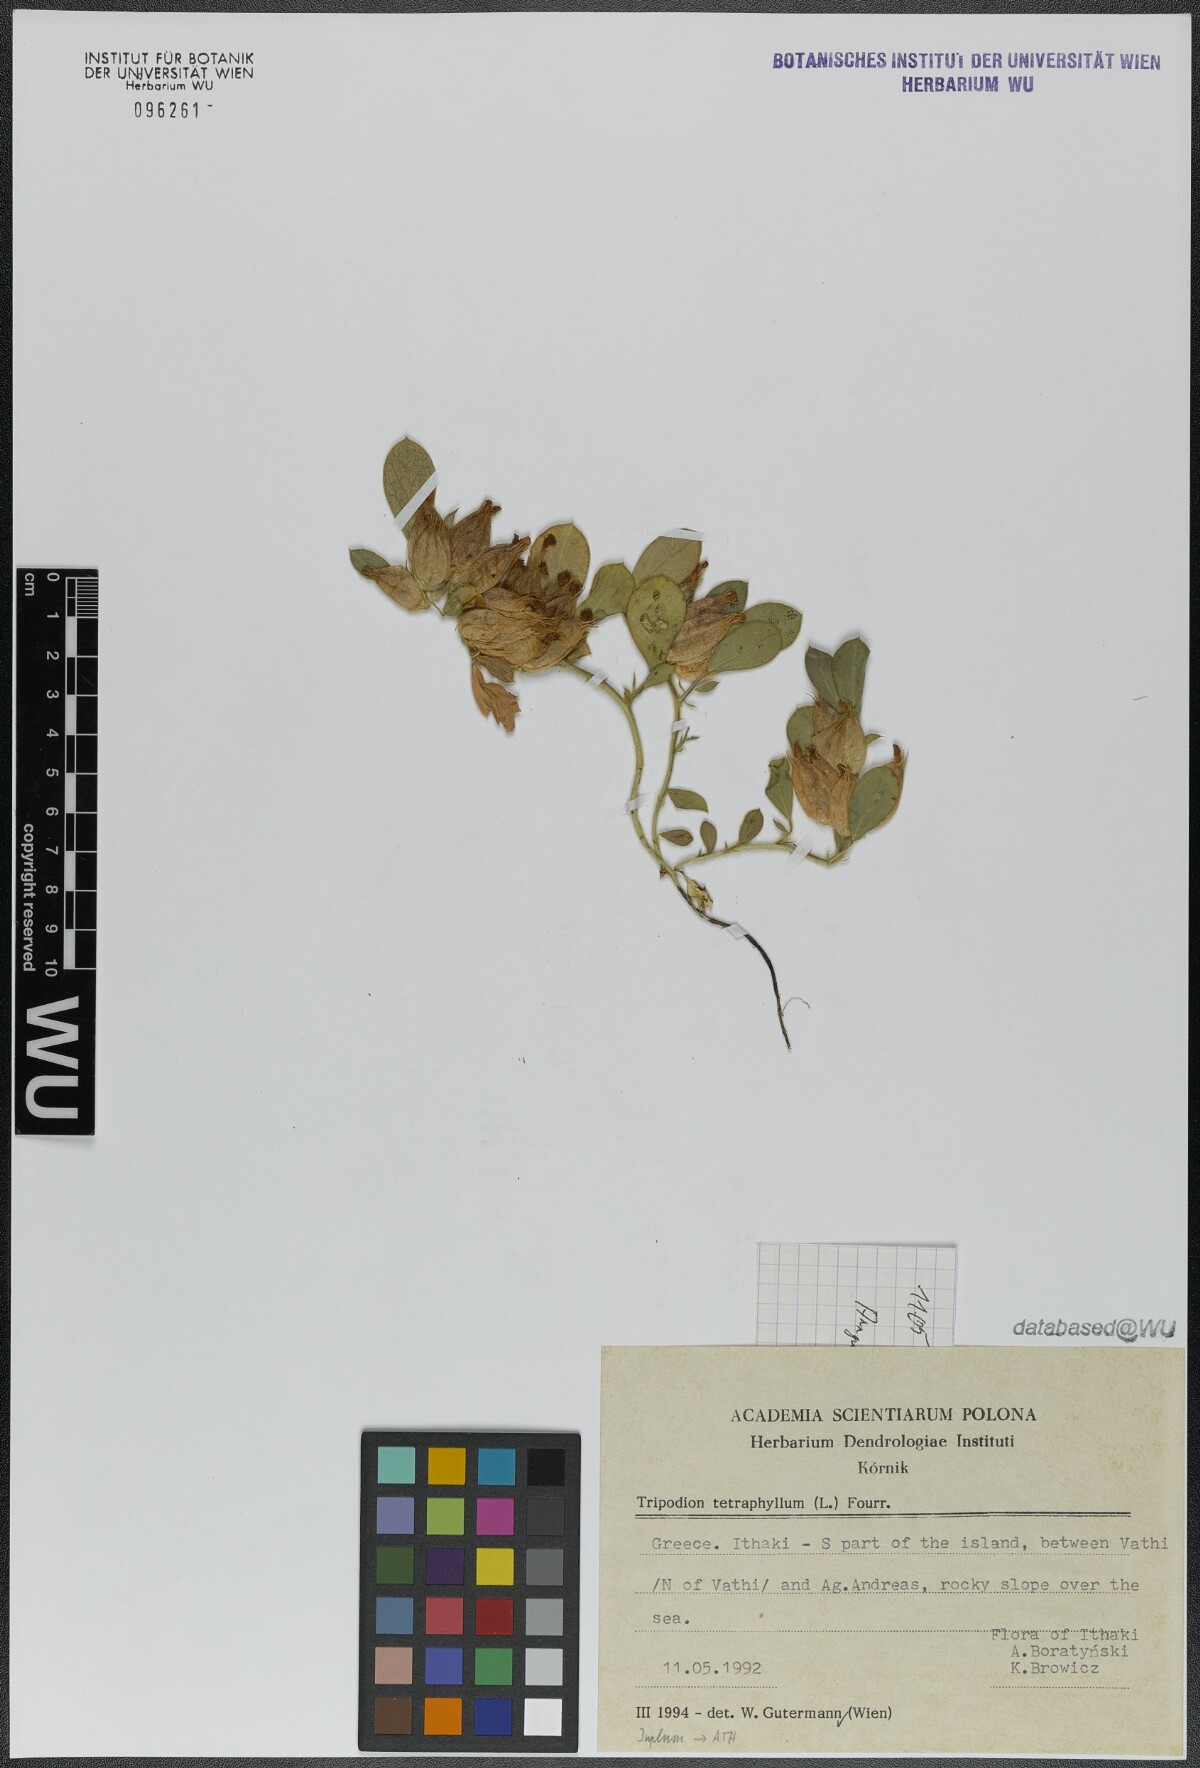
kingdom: Plantae
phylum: Tracheophyta
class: Magnoliopsida
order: Fabales
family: Fabaceae
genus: Tripodion
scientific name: Tripodion tetraphyllum
